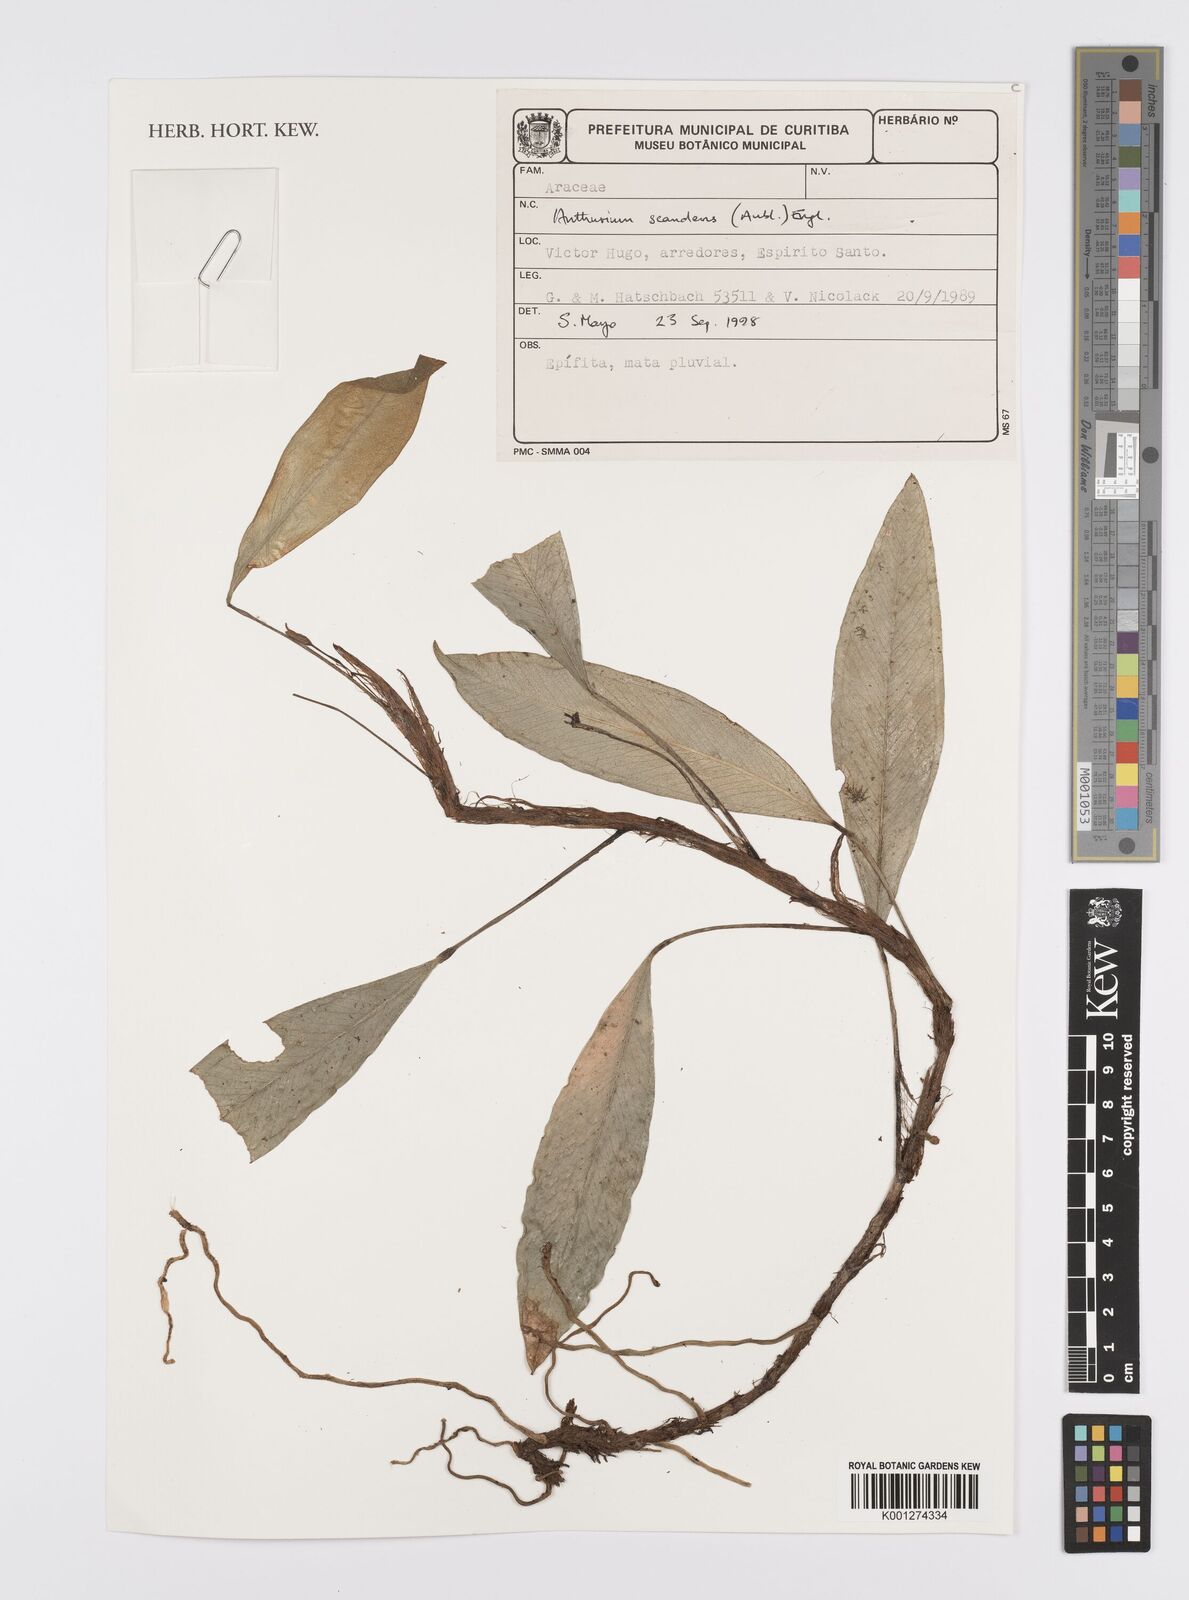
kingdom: Plantae
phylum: Tracheophyta
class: Liliopsida
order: Alismatales
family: Araceae
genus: Anthurium
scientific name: Anthurium scandens
